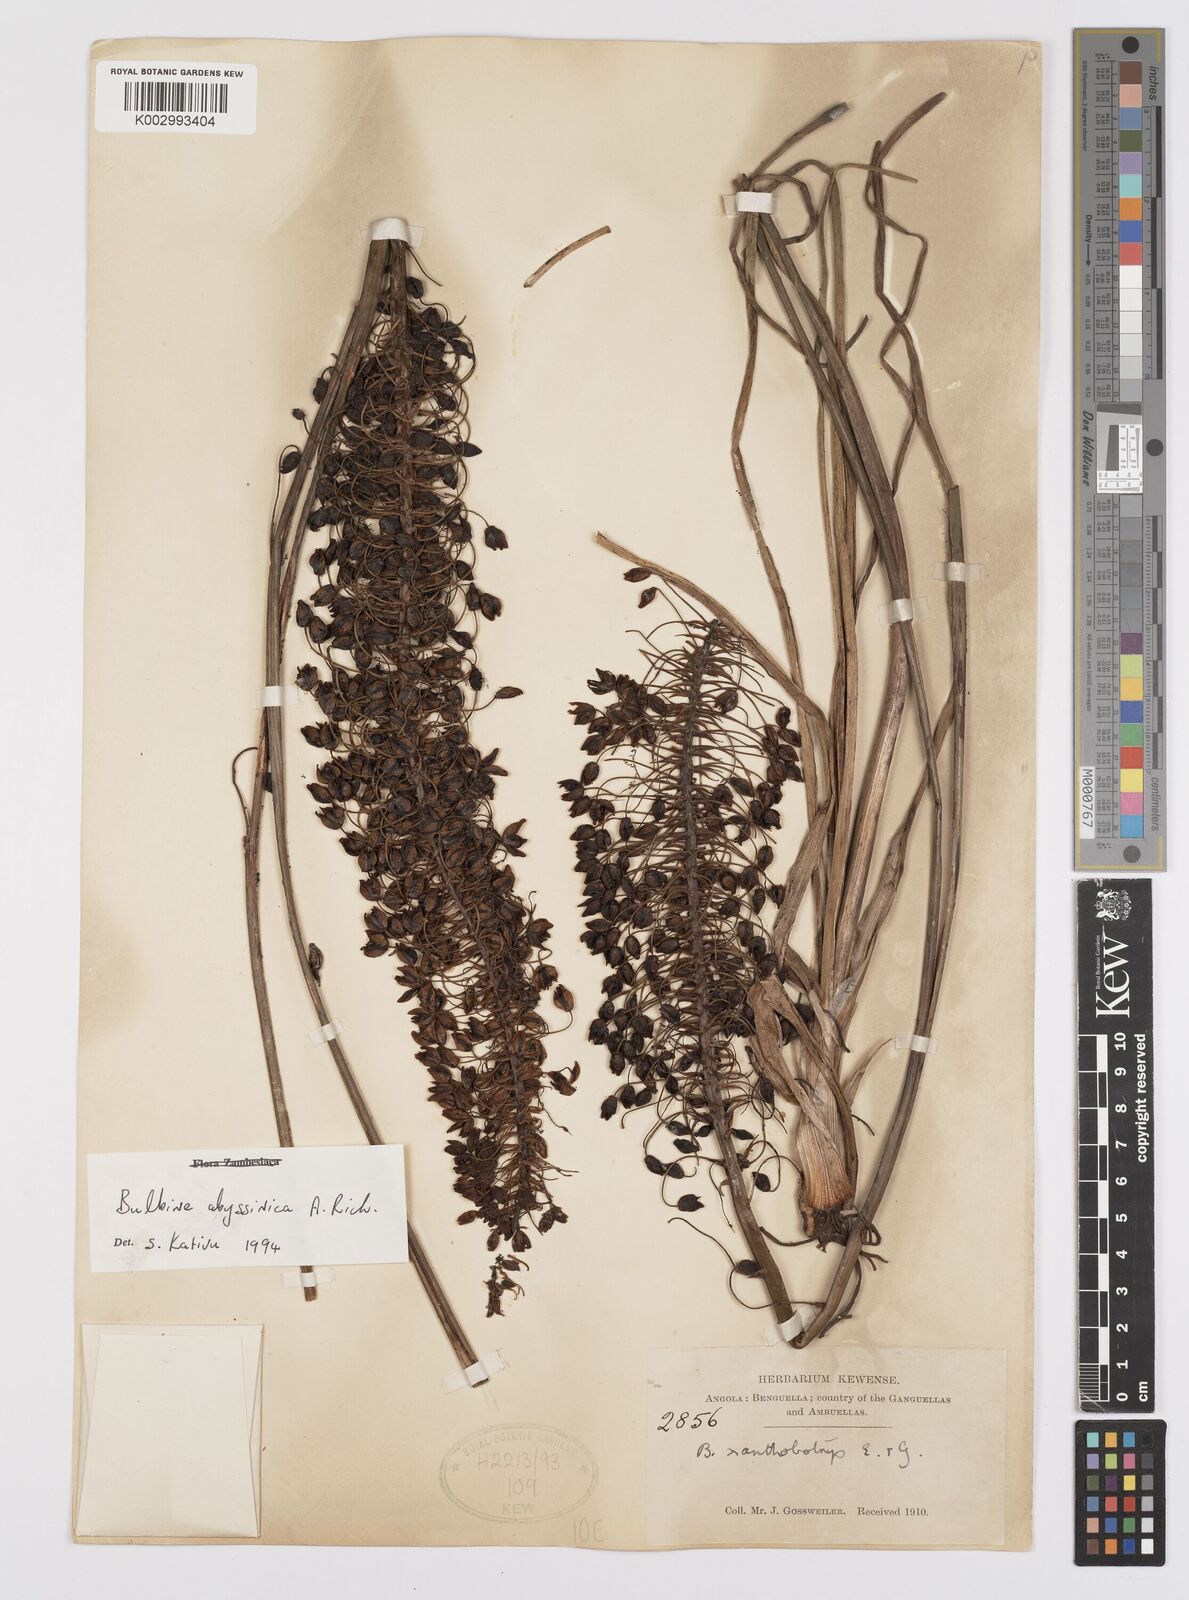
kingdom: Plantae
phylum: Tracheophyta
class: Liliopsida
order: Asparagales
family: Asphodelaceae
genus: Bulbine
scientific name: Bulbine abyssinica
